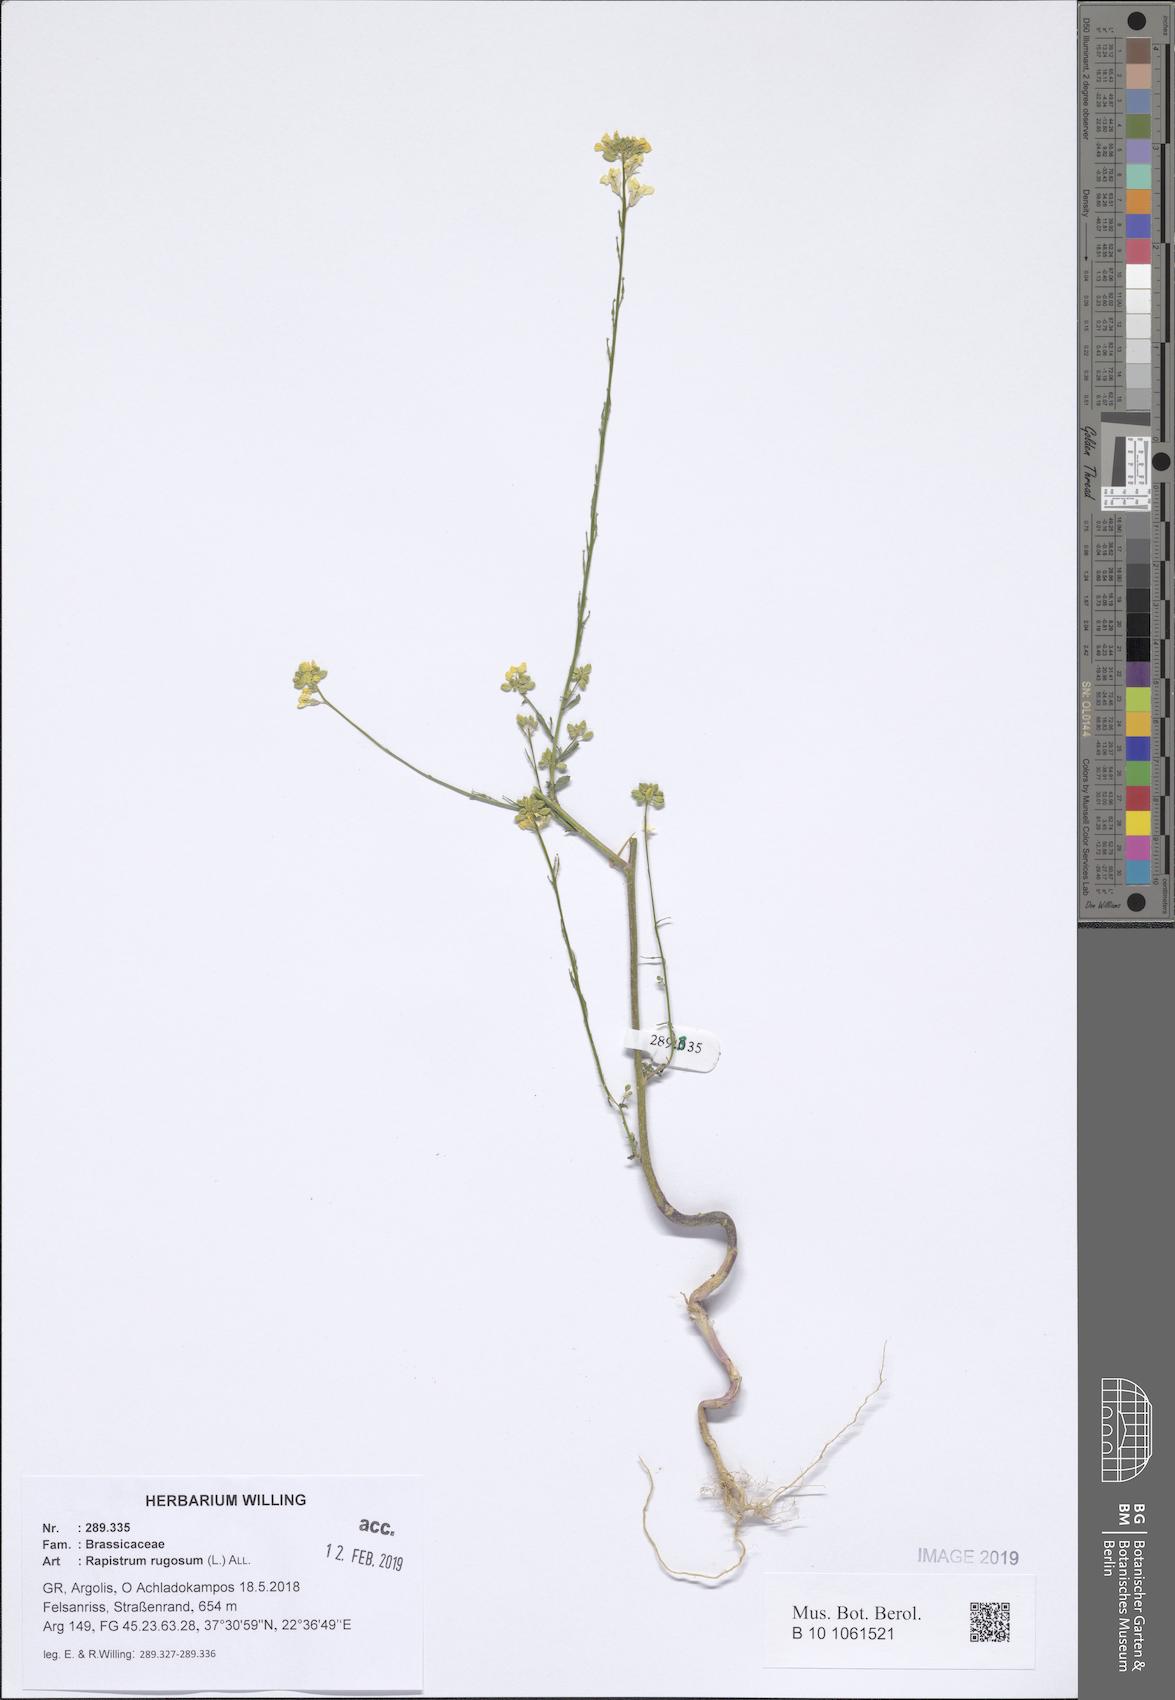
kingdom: Plantae
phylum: Tracheophyta
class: Magnoliopsida
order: Brassicales
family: Brassicaceae
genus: Rapistrum
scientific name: Rapistrum rugosum
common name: Annual bastardcabbage
